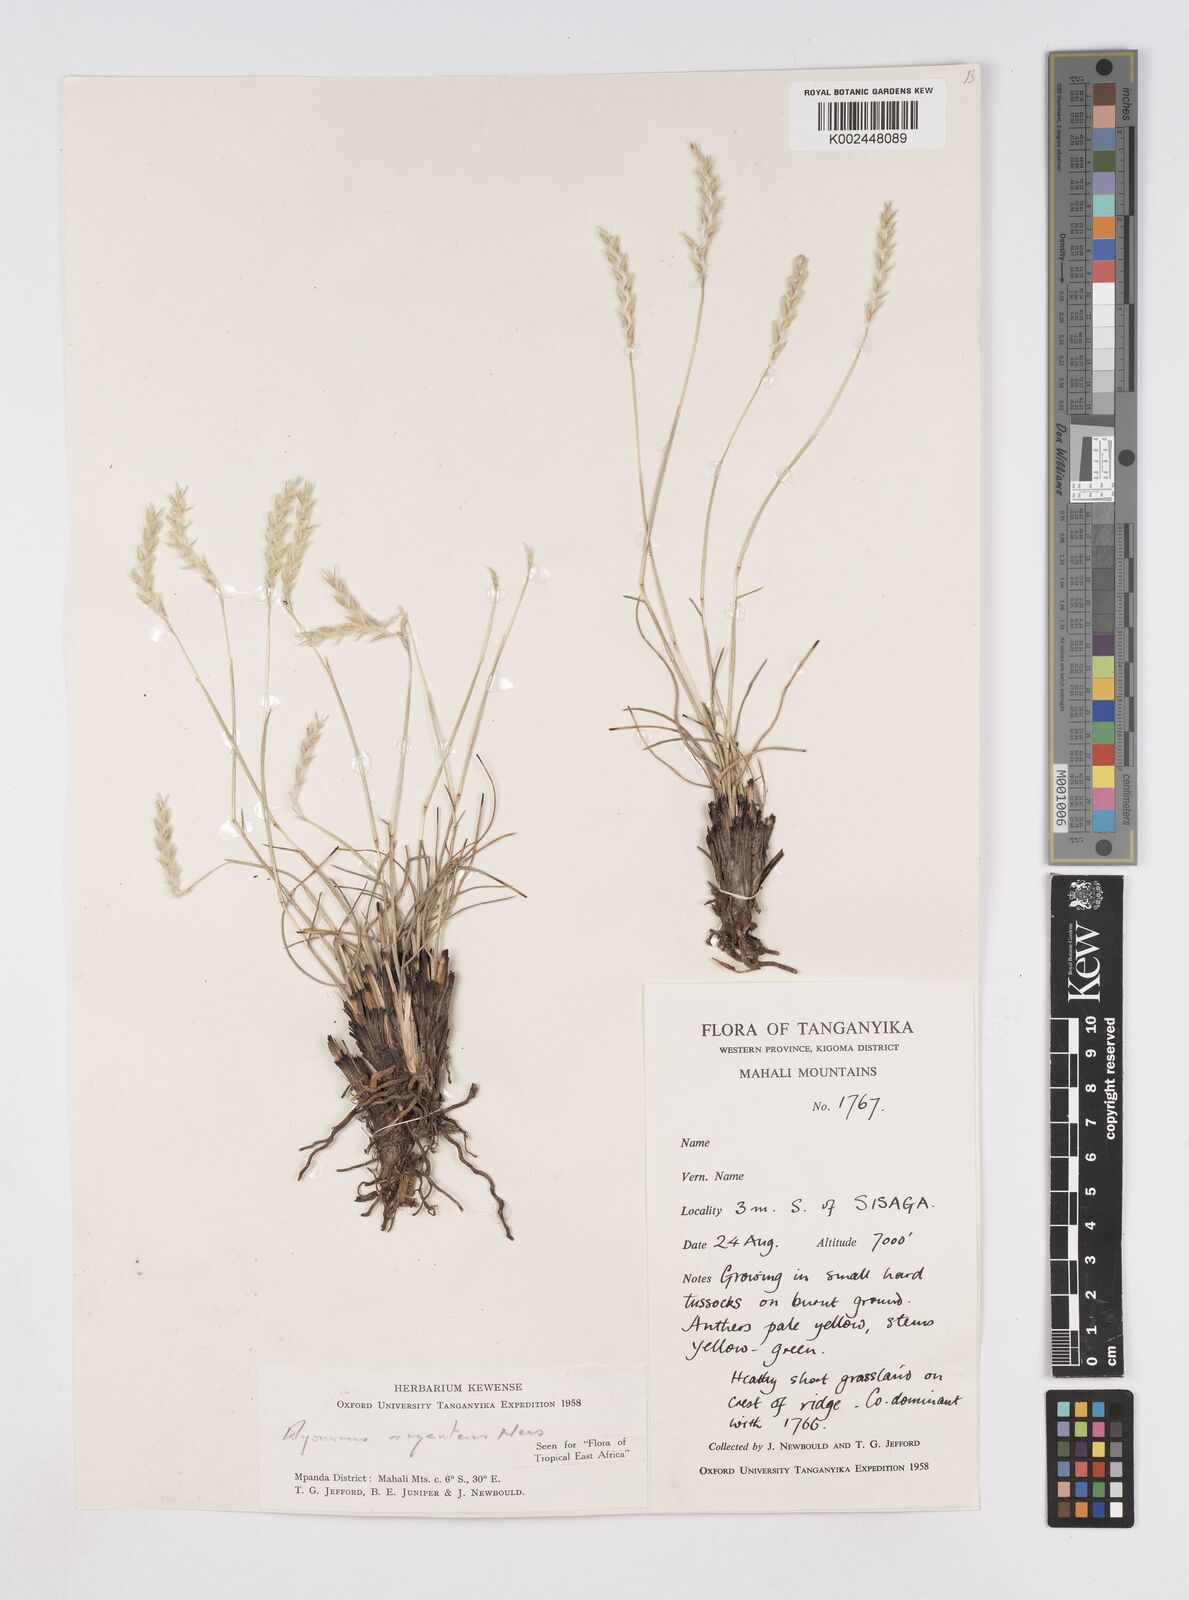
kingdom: Plantae
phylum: Tracheophyta
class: Liliopsida
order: Poales
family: Poaceae
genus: Elionurus
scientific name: Elionurus muticus
